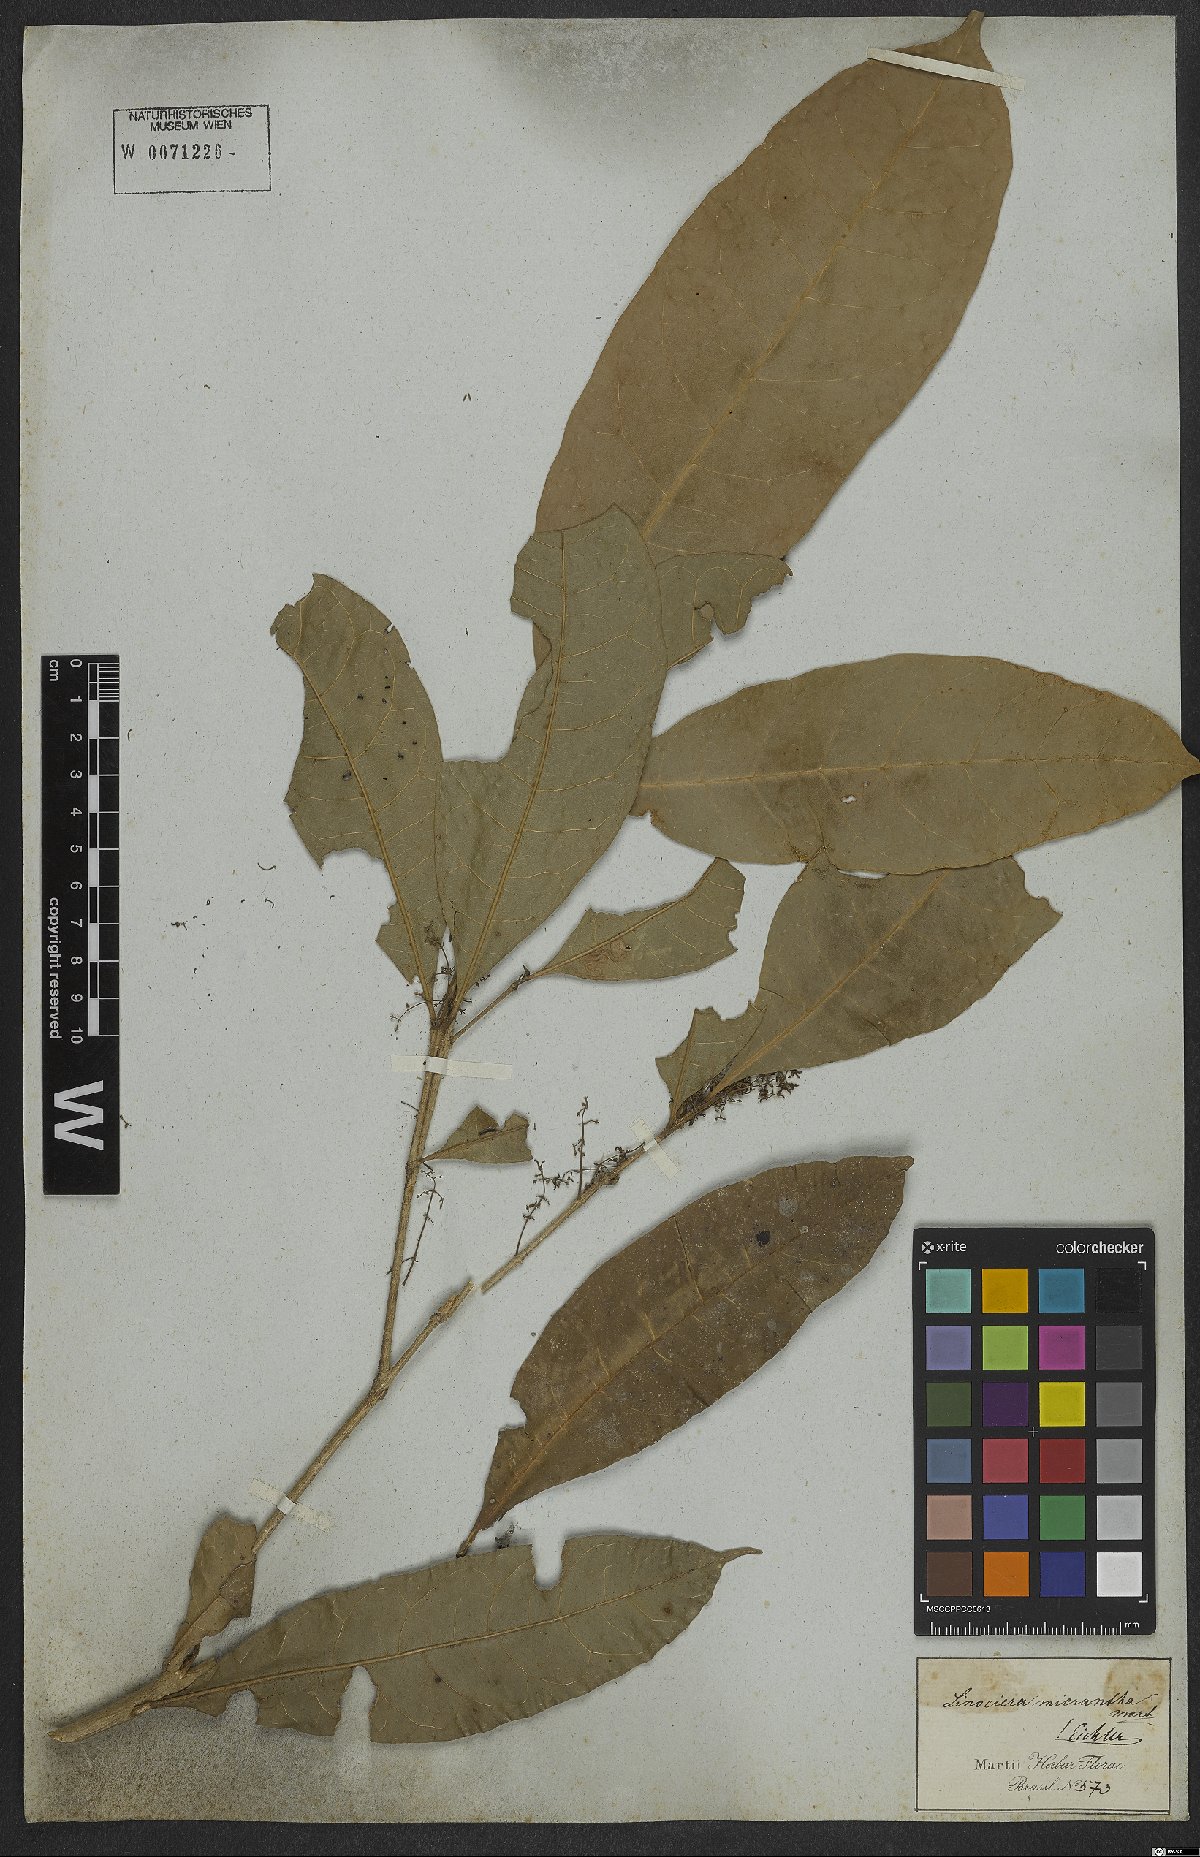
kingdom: Plantae
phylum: Tracheophyta
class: Magnoliopsida
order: Lamiales
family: Oleaceae
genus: Chionanthus
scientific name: Chionanthus micranthus
